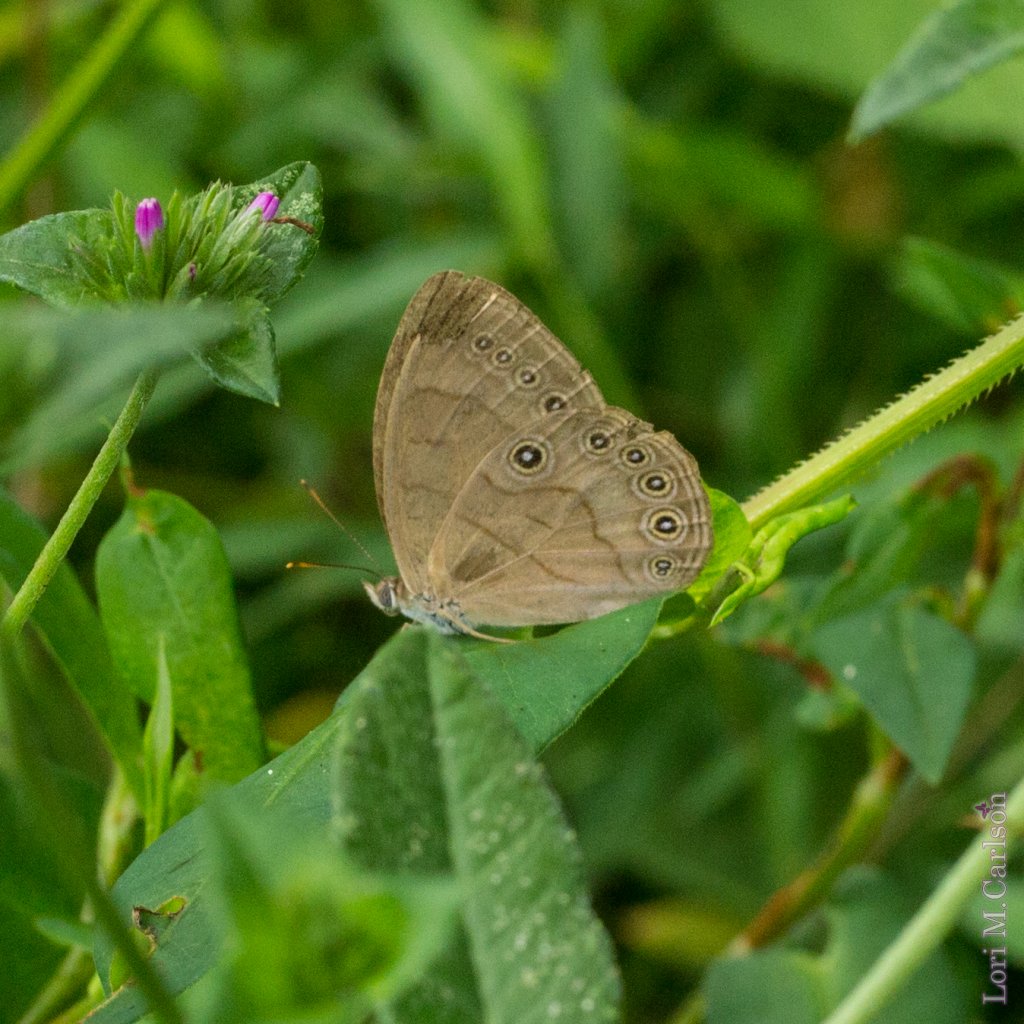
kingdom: Animalia
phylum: Arthropoda
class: Insecta
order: Lepidoptera
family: Nymphalidae
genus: Lethe
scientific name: Lethe eurydice
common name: Appalachian Eyed Brown
